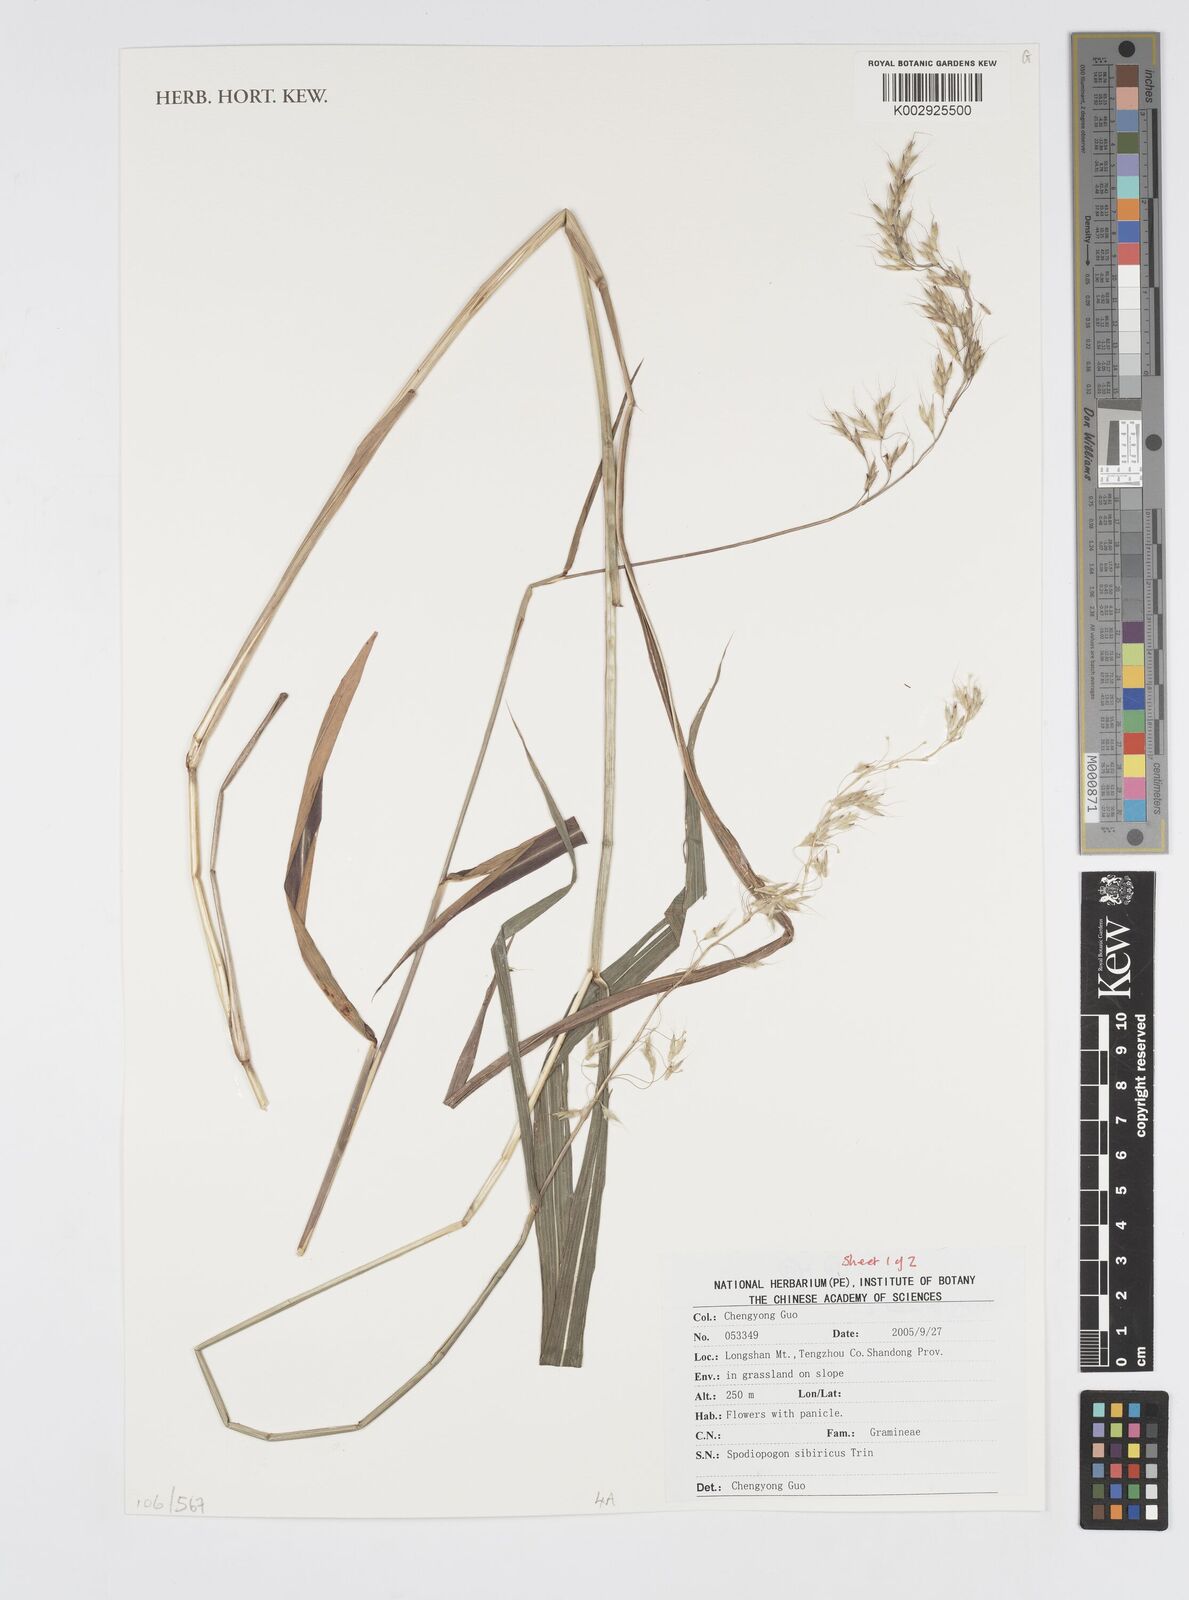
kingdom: Plantae
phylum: Tracheophyta
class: Liliopsida
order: Poales
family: Poaceae
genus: Spodiopogon
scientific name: Spodiopogon sibiricus
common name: Siberian graybeard
